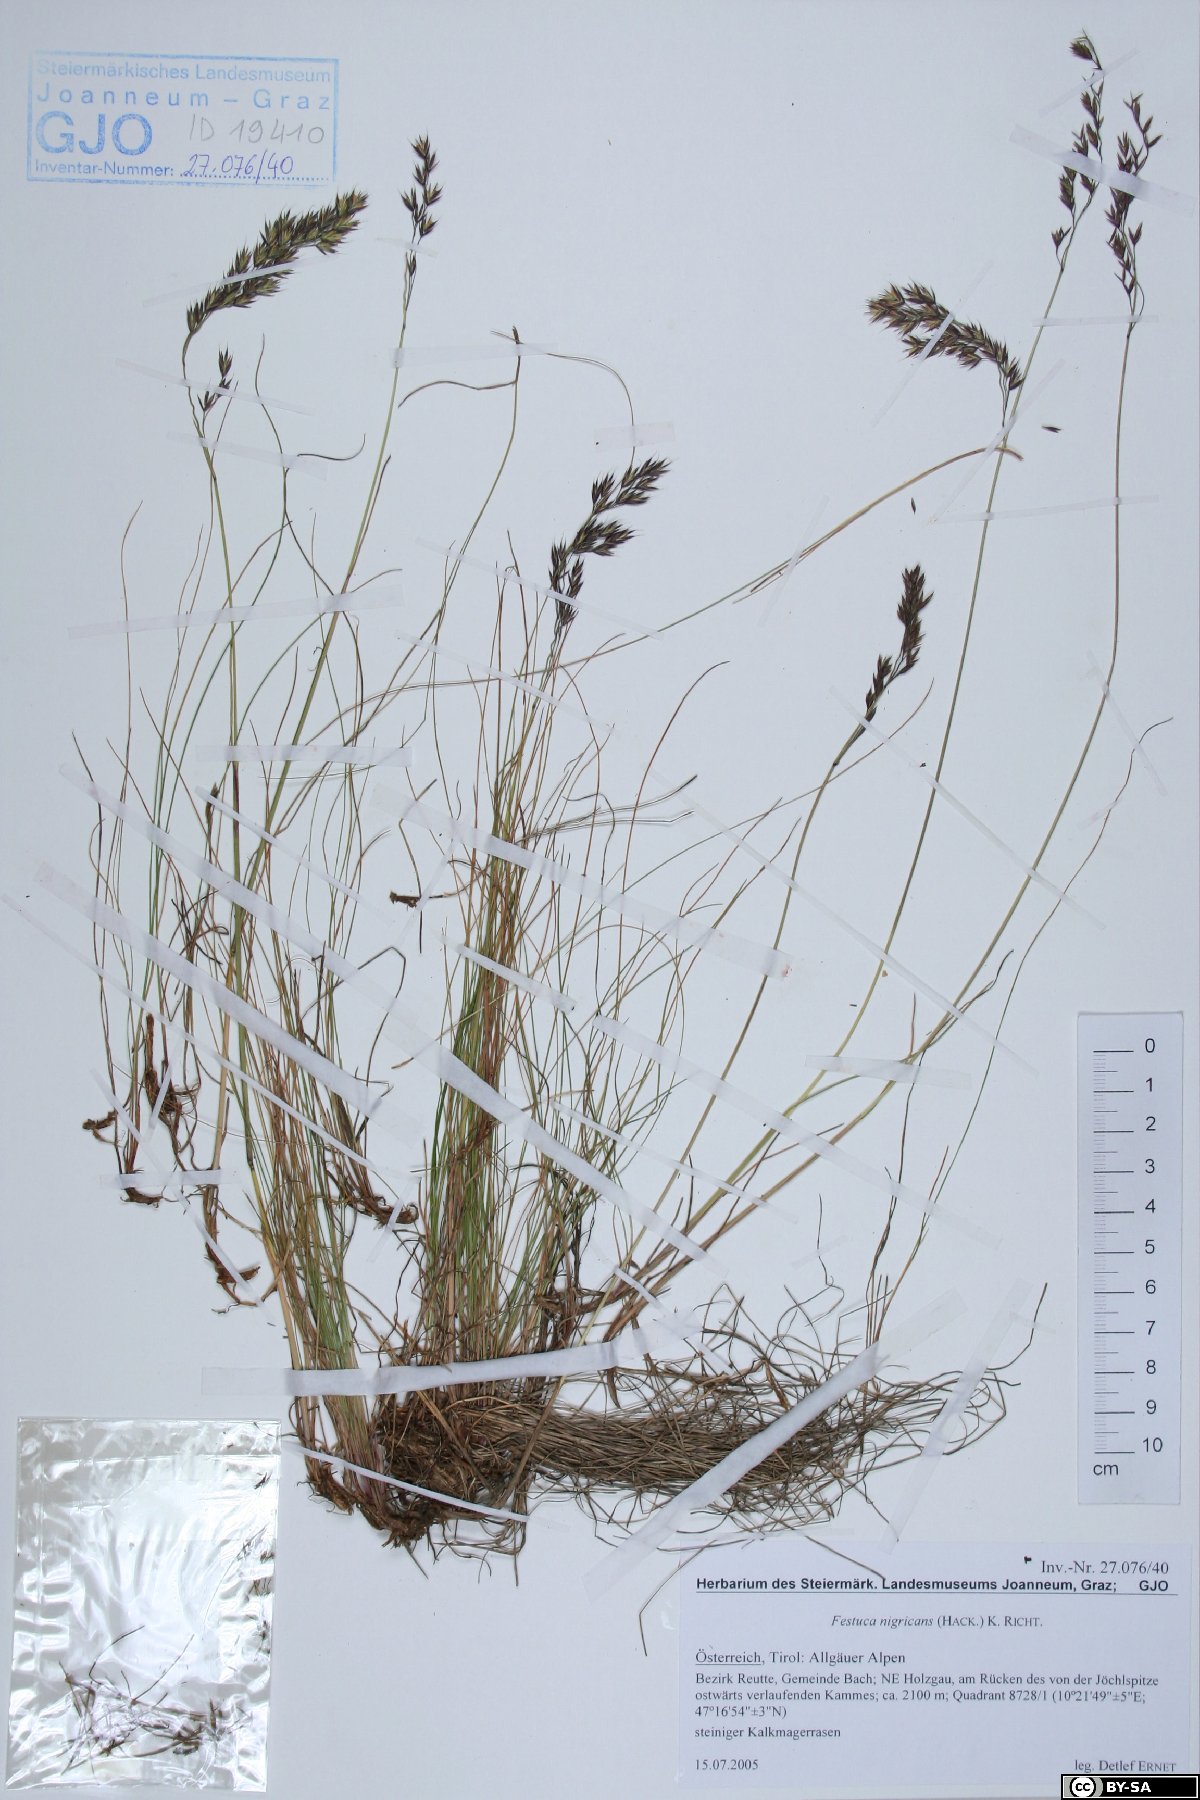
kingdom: Plantae
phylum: Tracheophyta
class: Liliopsida
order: Poales
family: Poaceae
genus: Festuca
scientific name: Festuca violacea
